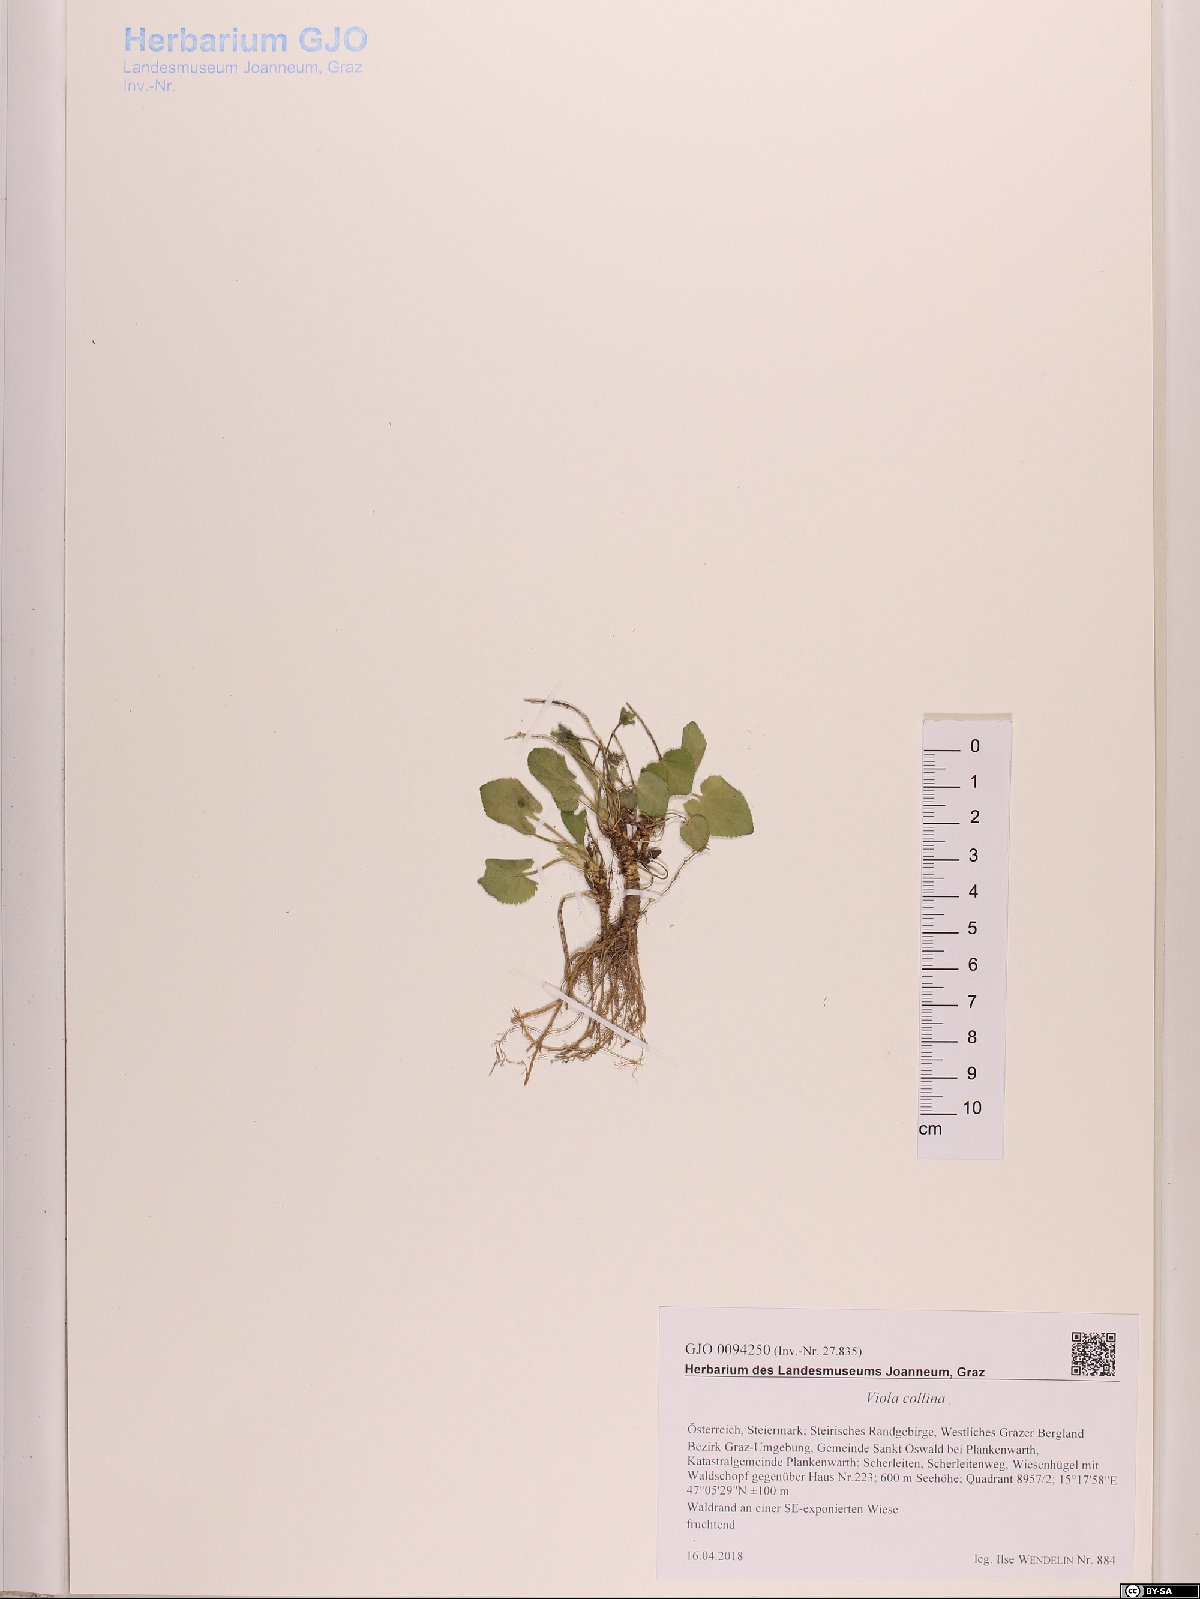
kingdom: Plantae
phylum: Tracheophyta
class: Magnoliopsida
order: Malpighiales
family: Violaceae
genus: Viola
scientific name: Viola collina
